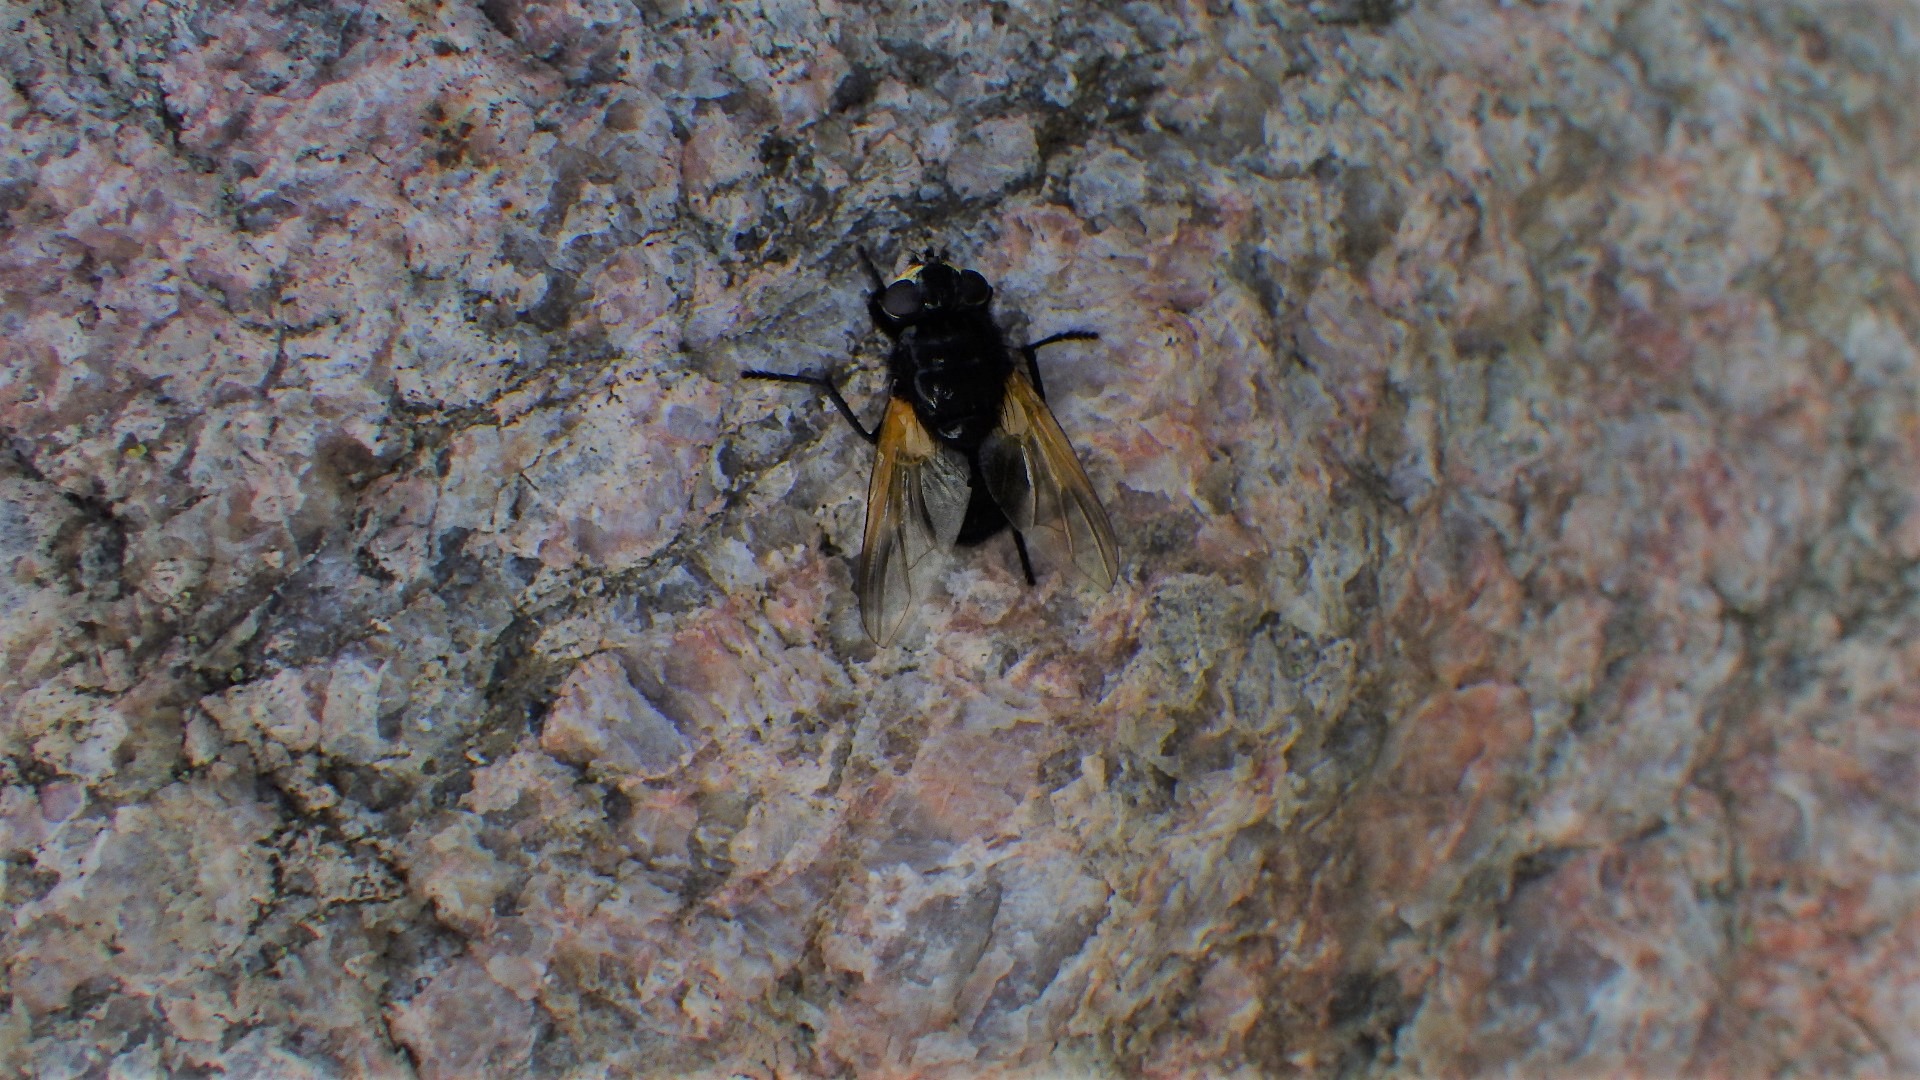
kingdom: Animalia
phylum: Arthropoda
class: Insecta
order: Diptera
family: Muscidae
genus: Mesembrina
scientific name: Mesembrina meridiana
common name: Gulvinget flue
